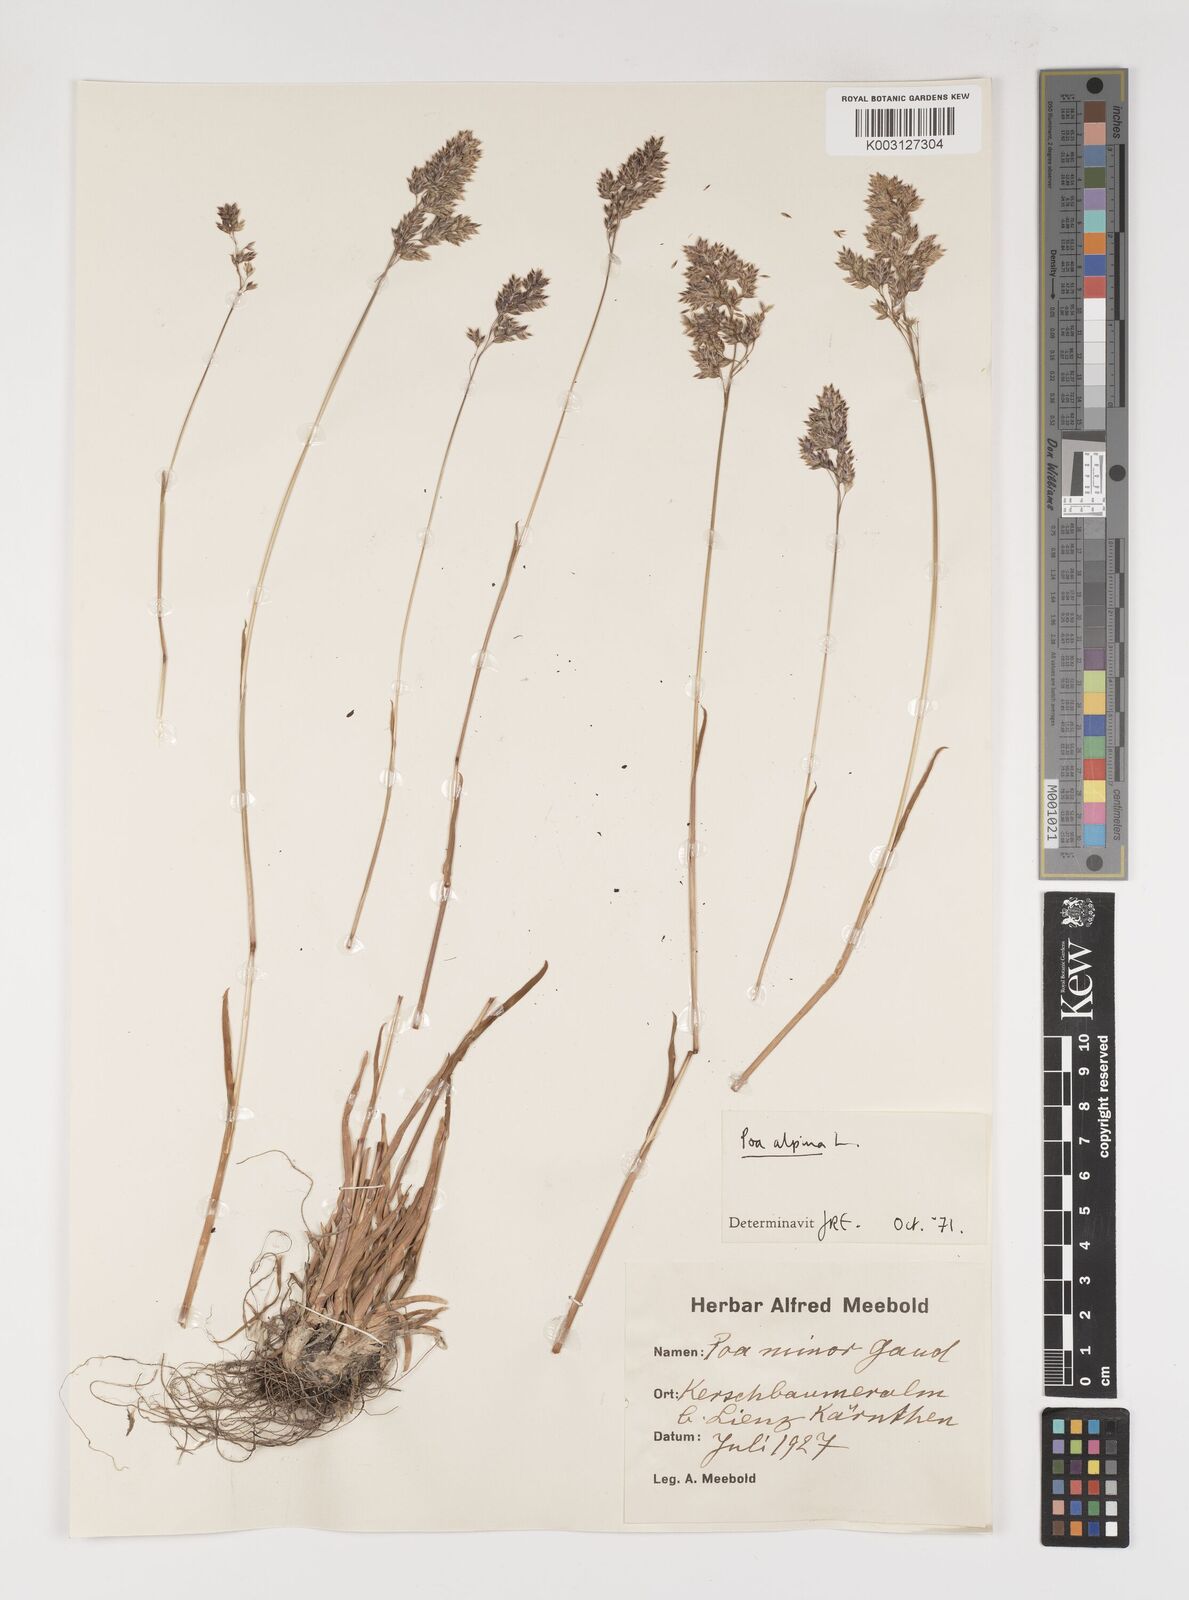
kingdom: Plantae
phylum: Tracheophyta
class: Liliopsida
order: Poales
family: Poaceae
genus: Poa
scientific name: Poa alpina
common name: Alpine bluegrass
